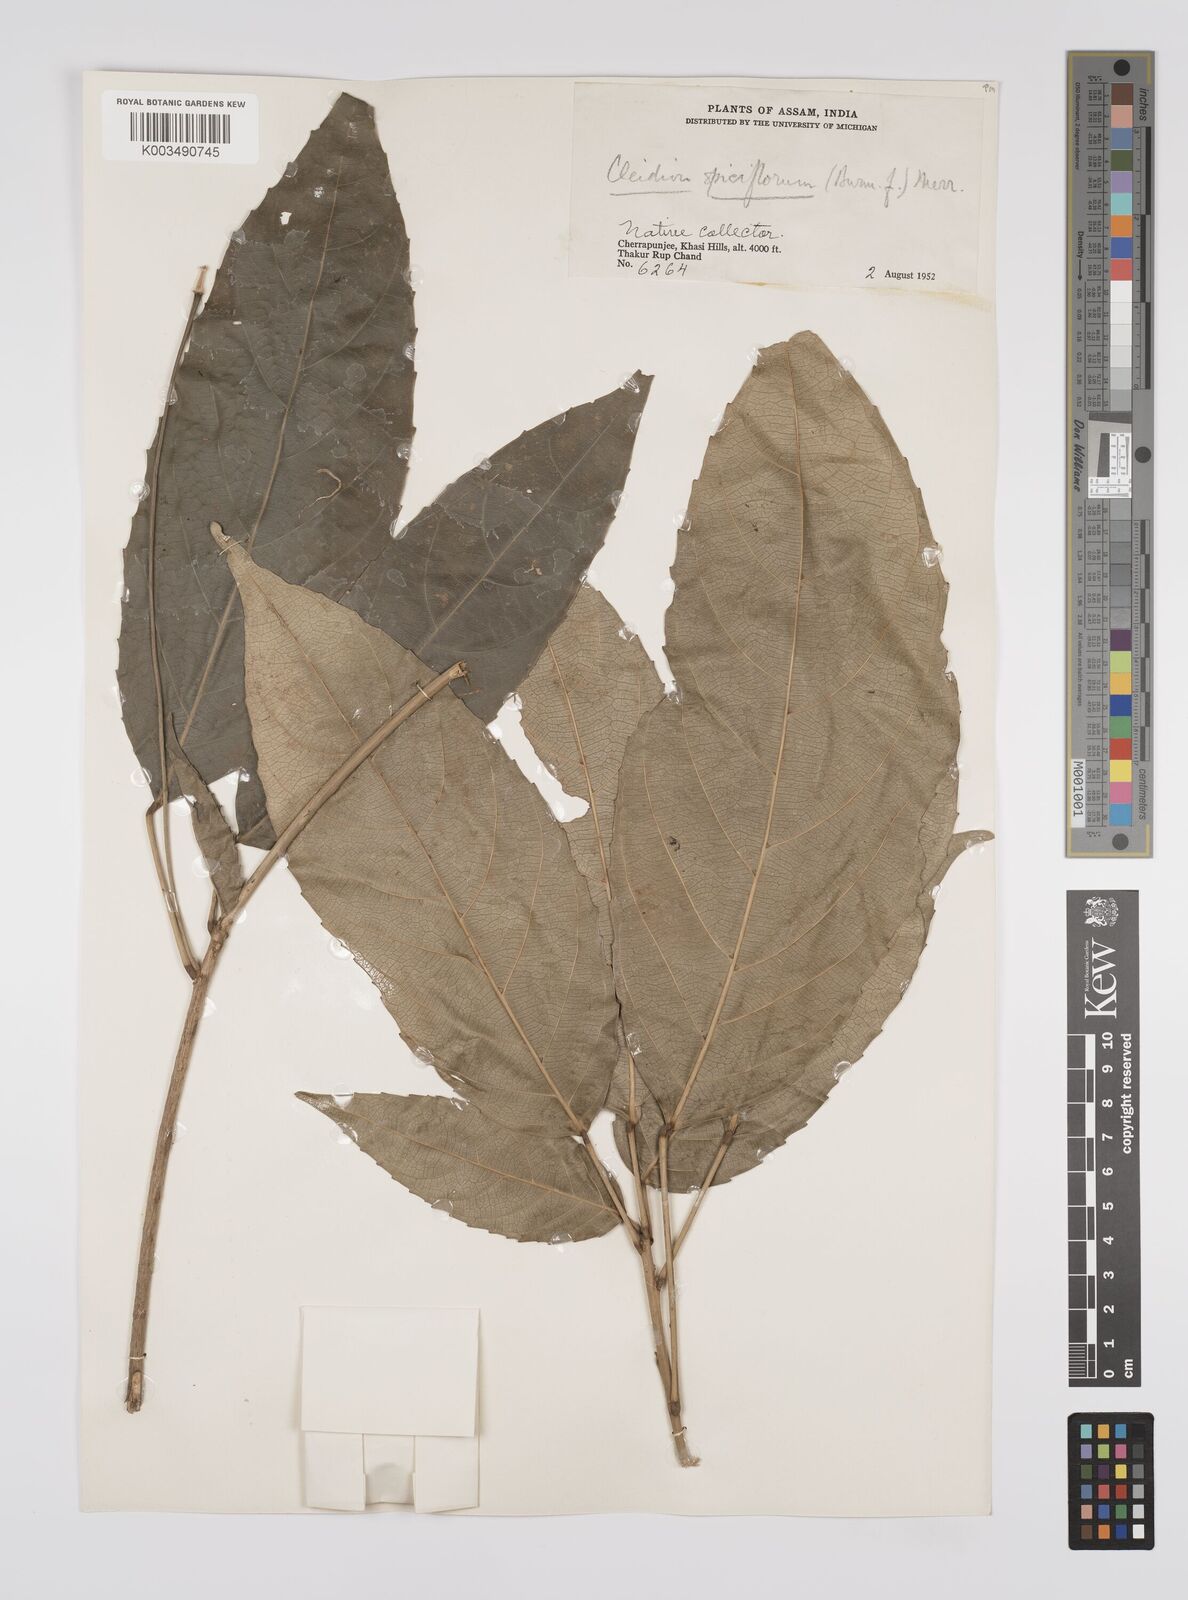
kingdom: Plantae
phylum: Tracheophyta
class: Magnoliopsida
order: Malpighiales
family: Euphorbiaceae
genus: Acalypha
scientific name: Acalypha spiciflora
